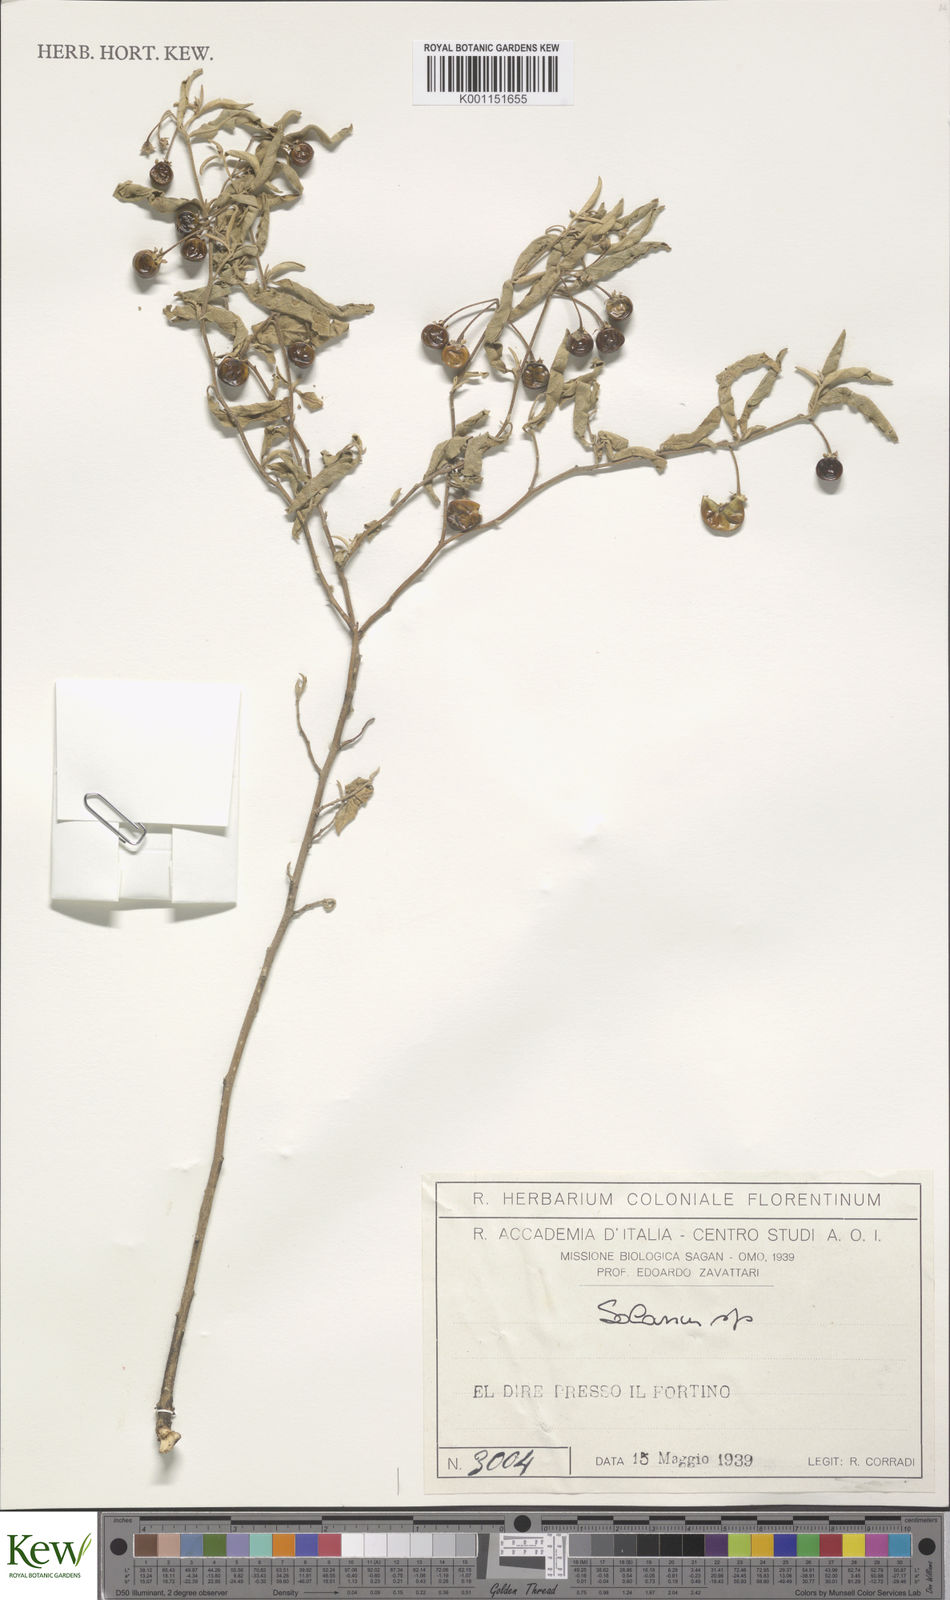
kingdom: Plantae
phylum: Tracheophyta
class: Magnoliopsida
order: Solanales
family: Solanaceae
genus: Solanum
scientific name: Solanum
